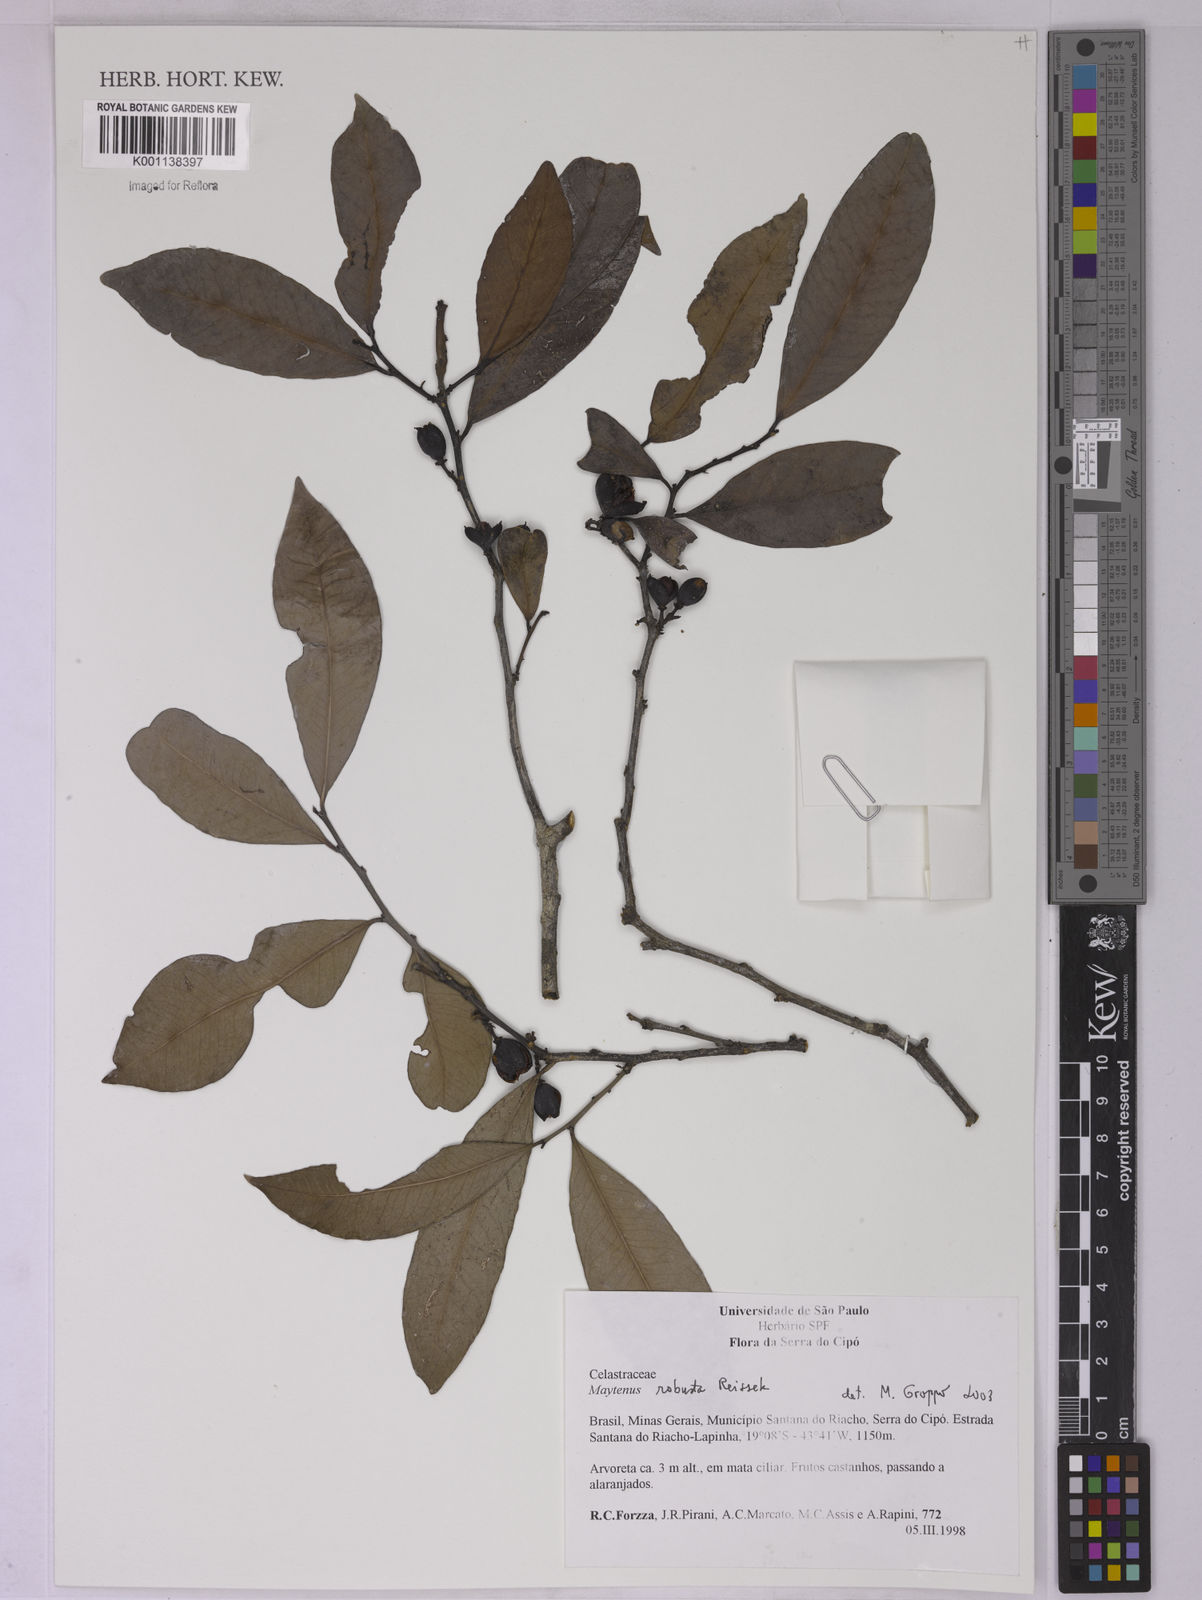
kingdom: Plantae
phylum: Tracheophyta
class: Magnoliopsida
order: Celastrales
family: Celastraceae
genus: Monteverdia
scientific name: Monteverdia robusta
